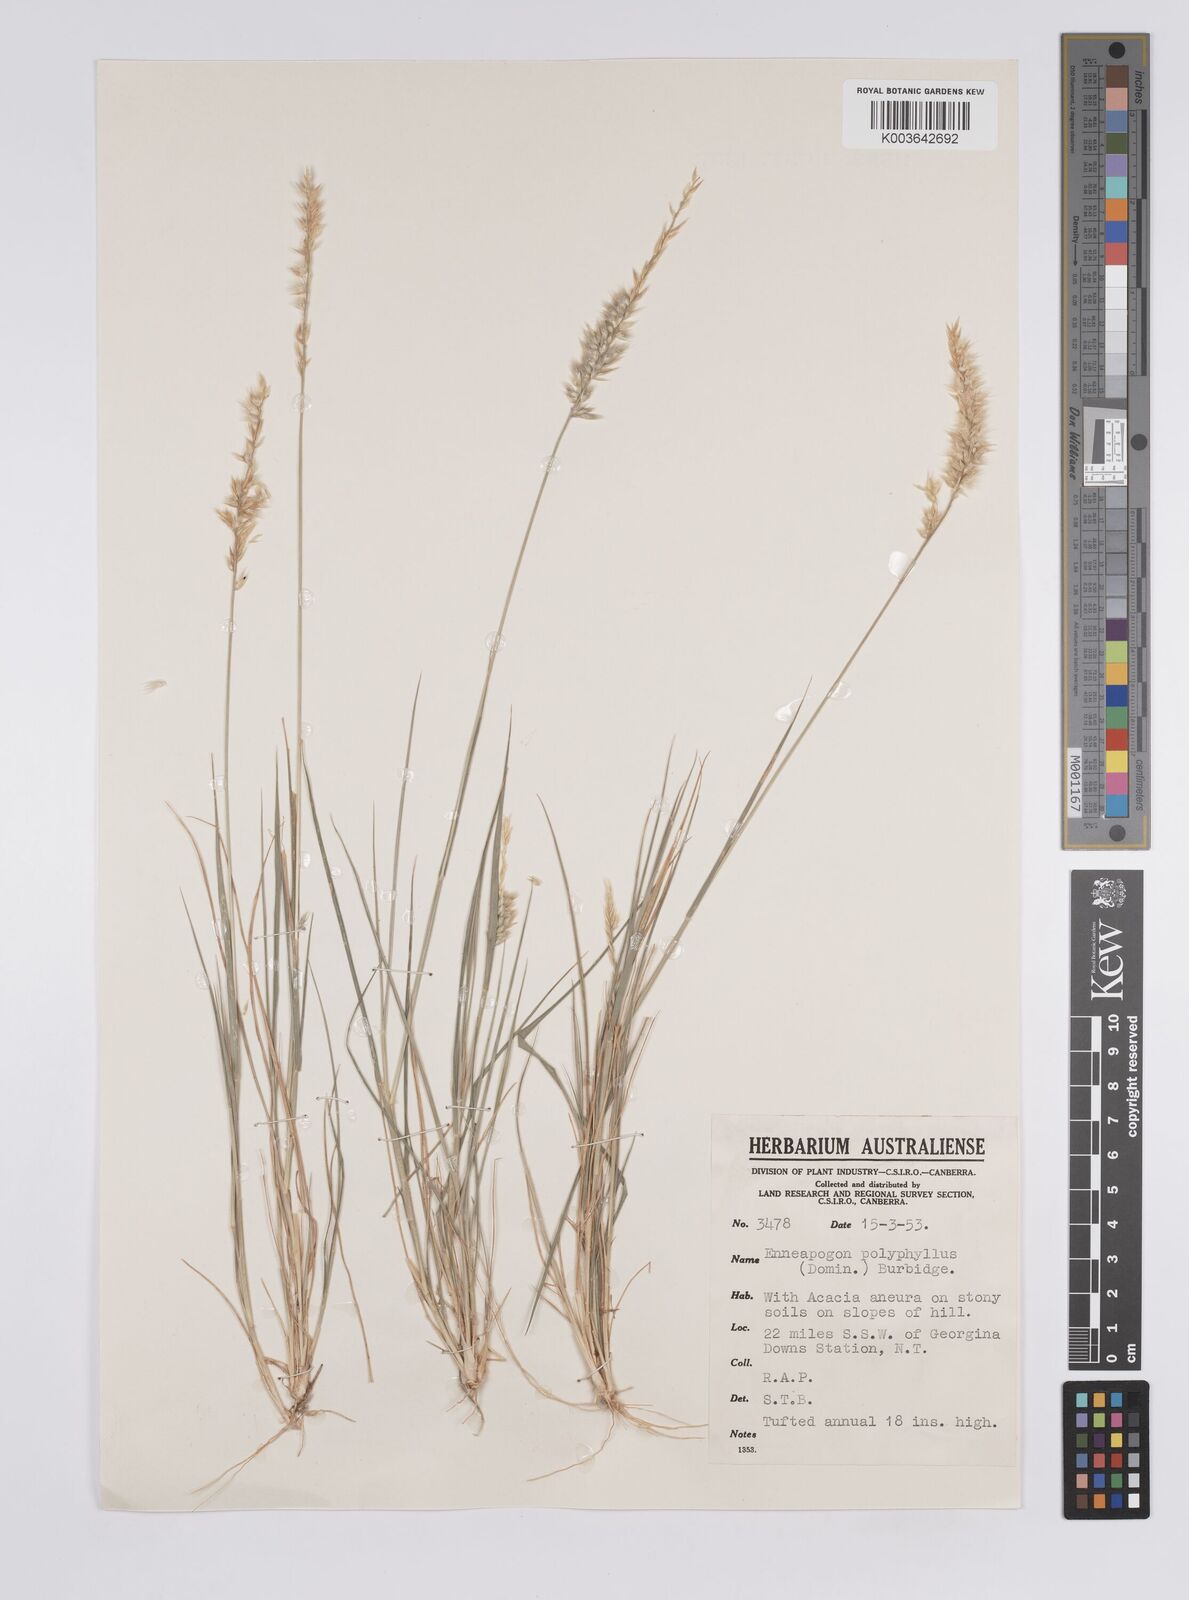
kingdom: Plantae
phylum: Tracheophyta
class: Liliopsida
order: Poales
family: Poaceae
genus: Enneapogon
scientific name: Enneapogon polyphyllus
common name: Leafy nineawn
